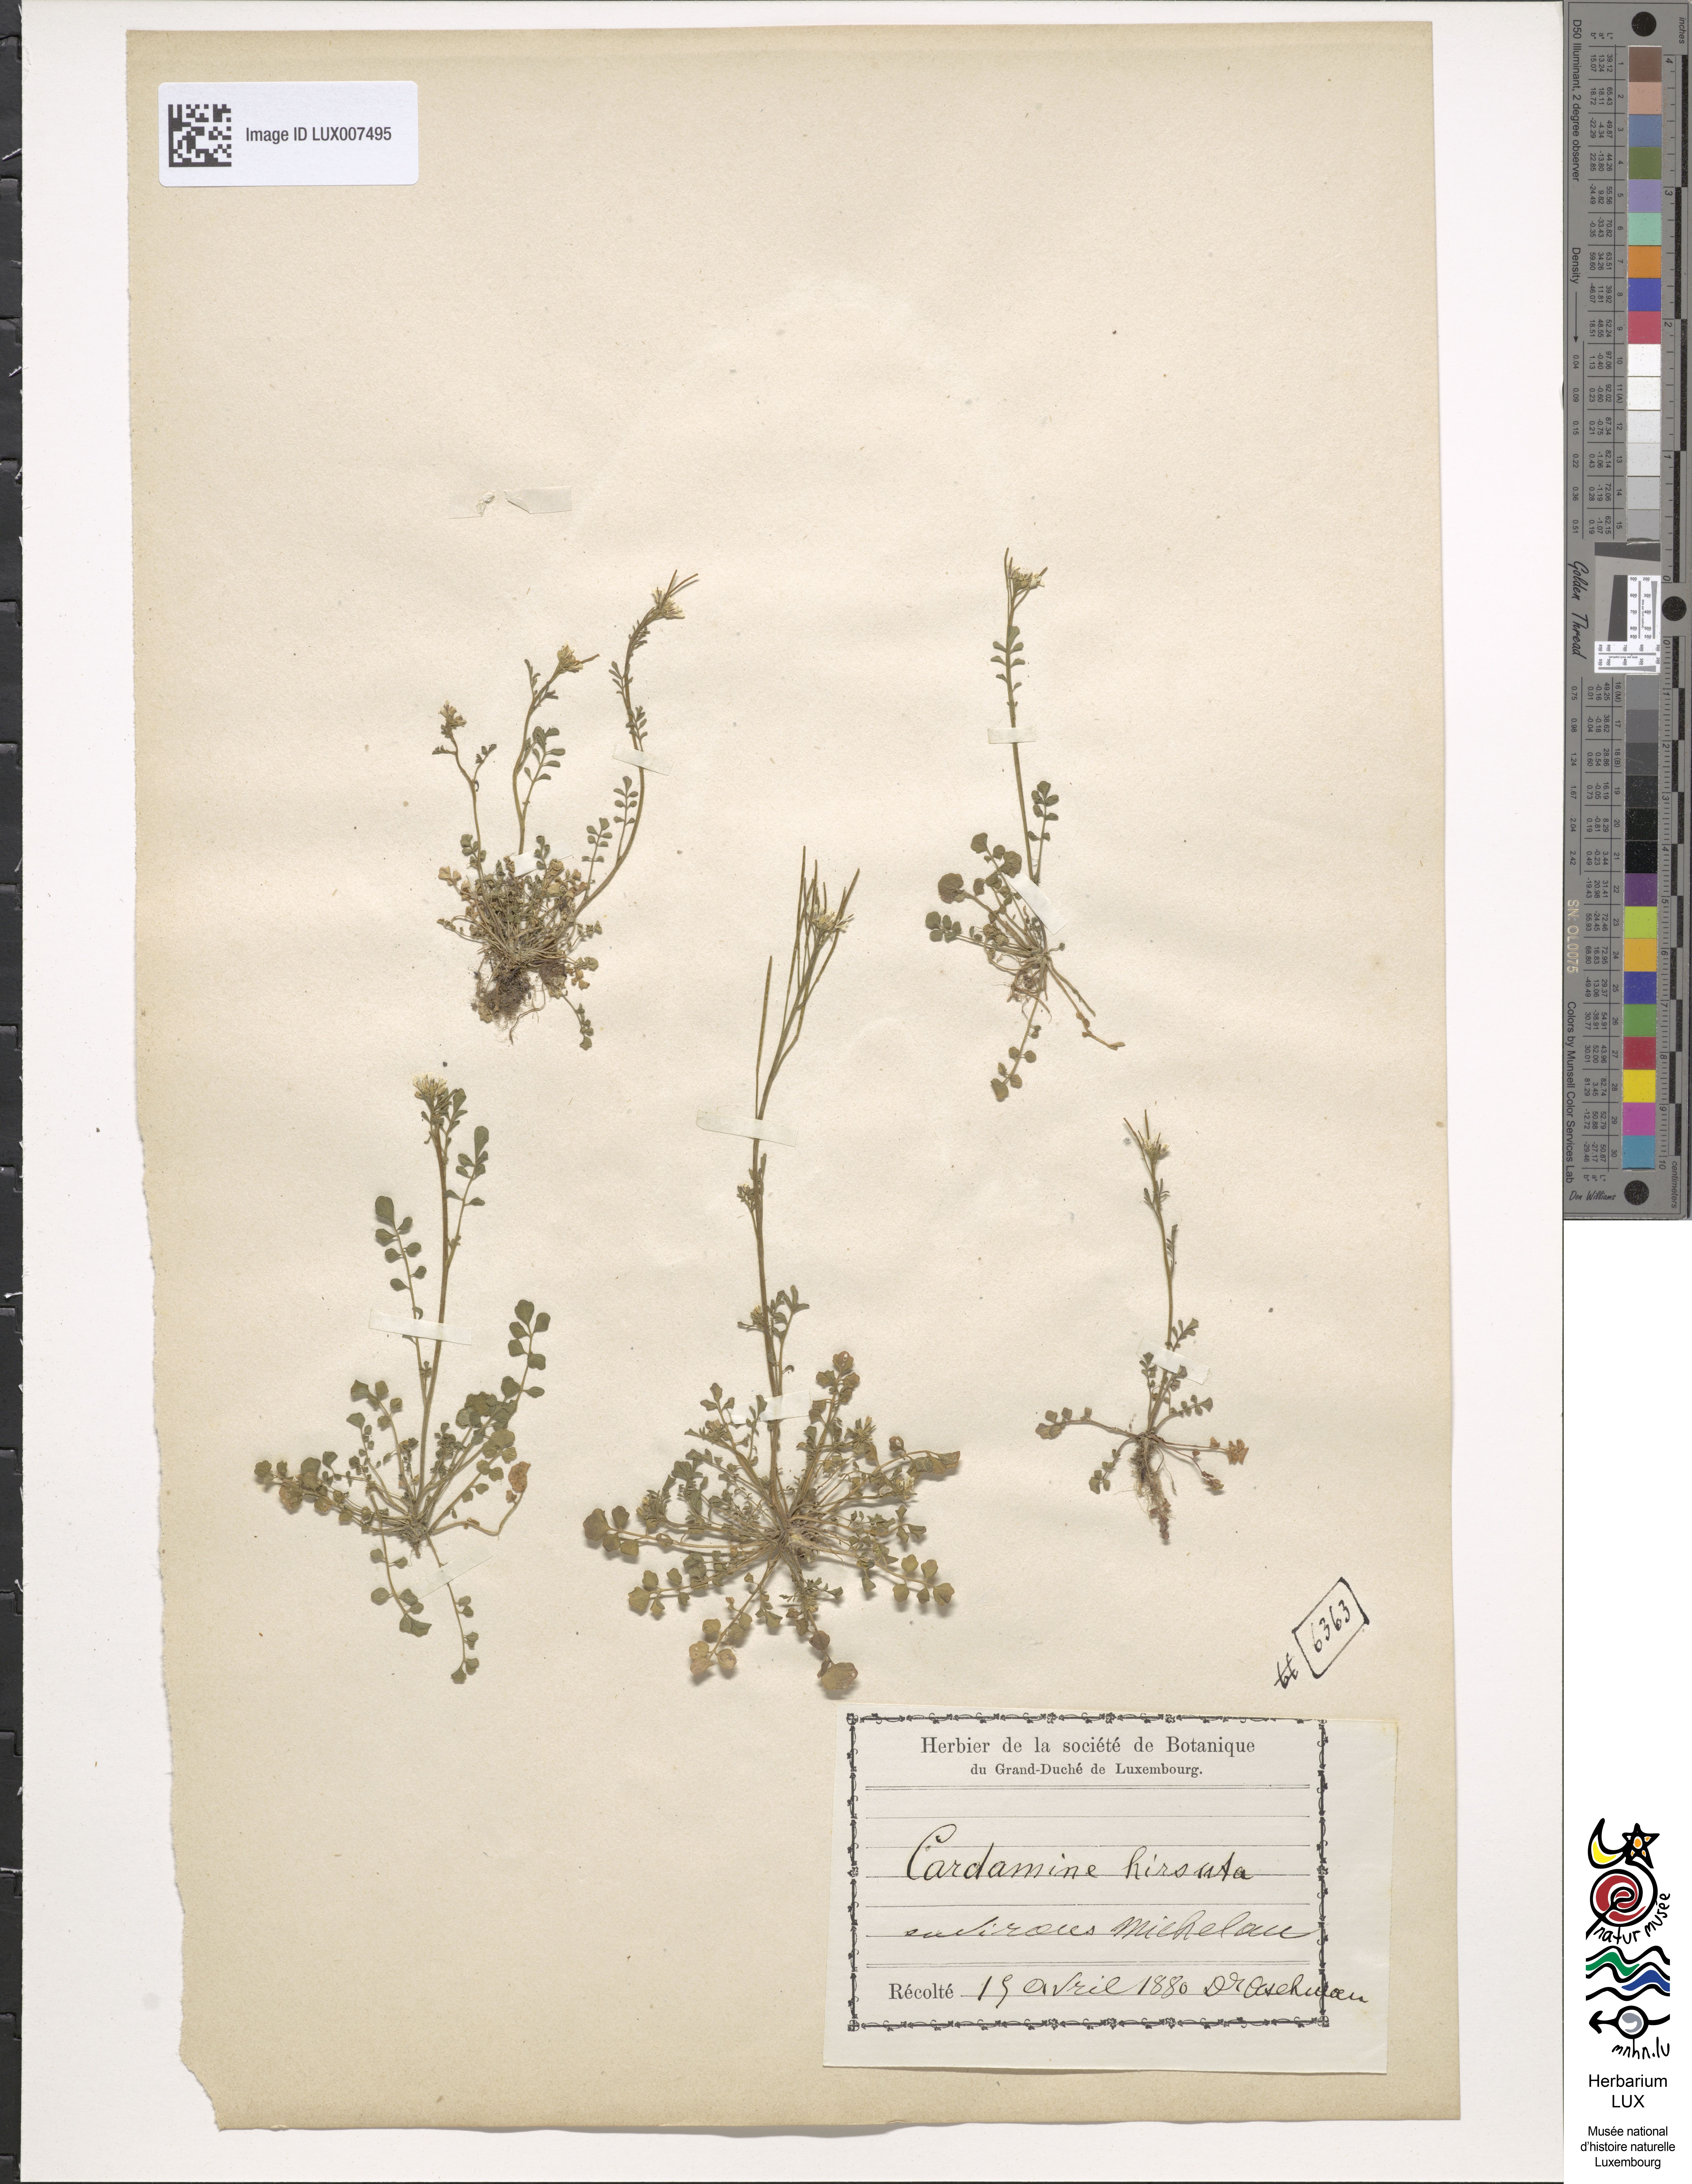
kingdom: Plantae
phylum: Tracheophyta
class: Magnoliopsida
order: Brassicales
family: Brassicaceae
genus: Cardamine
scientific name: Cardamine hirsuta
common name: Hairy bittercress
